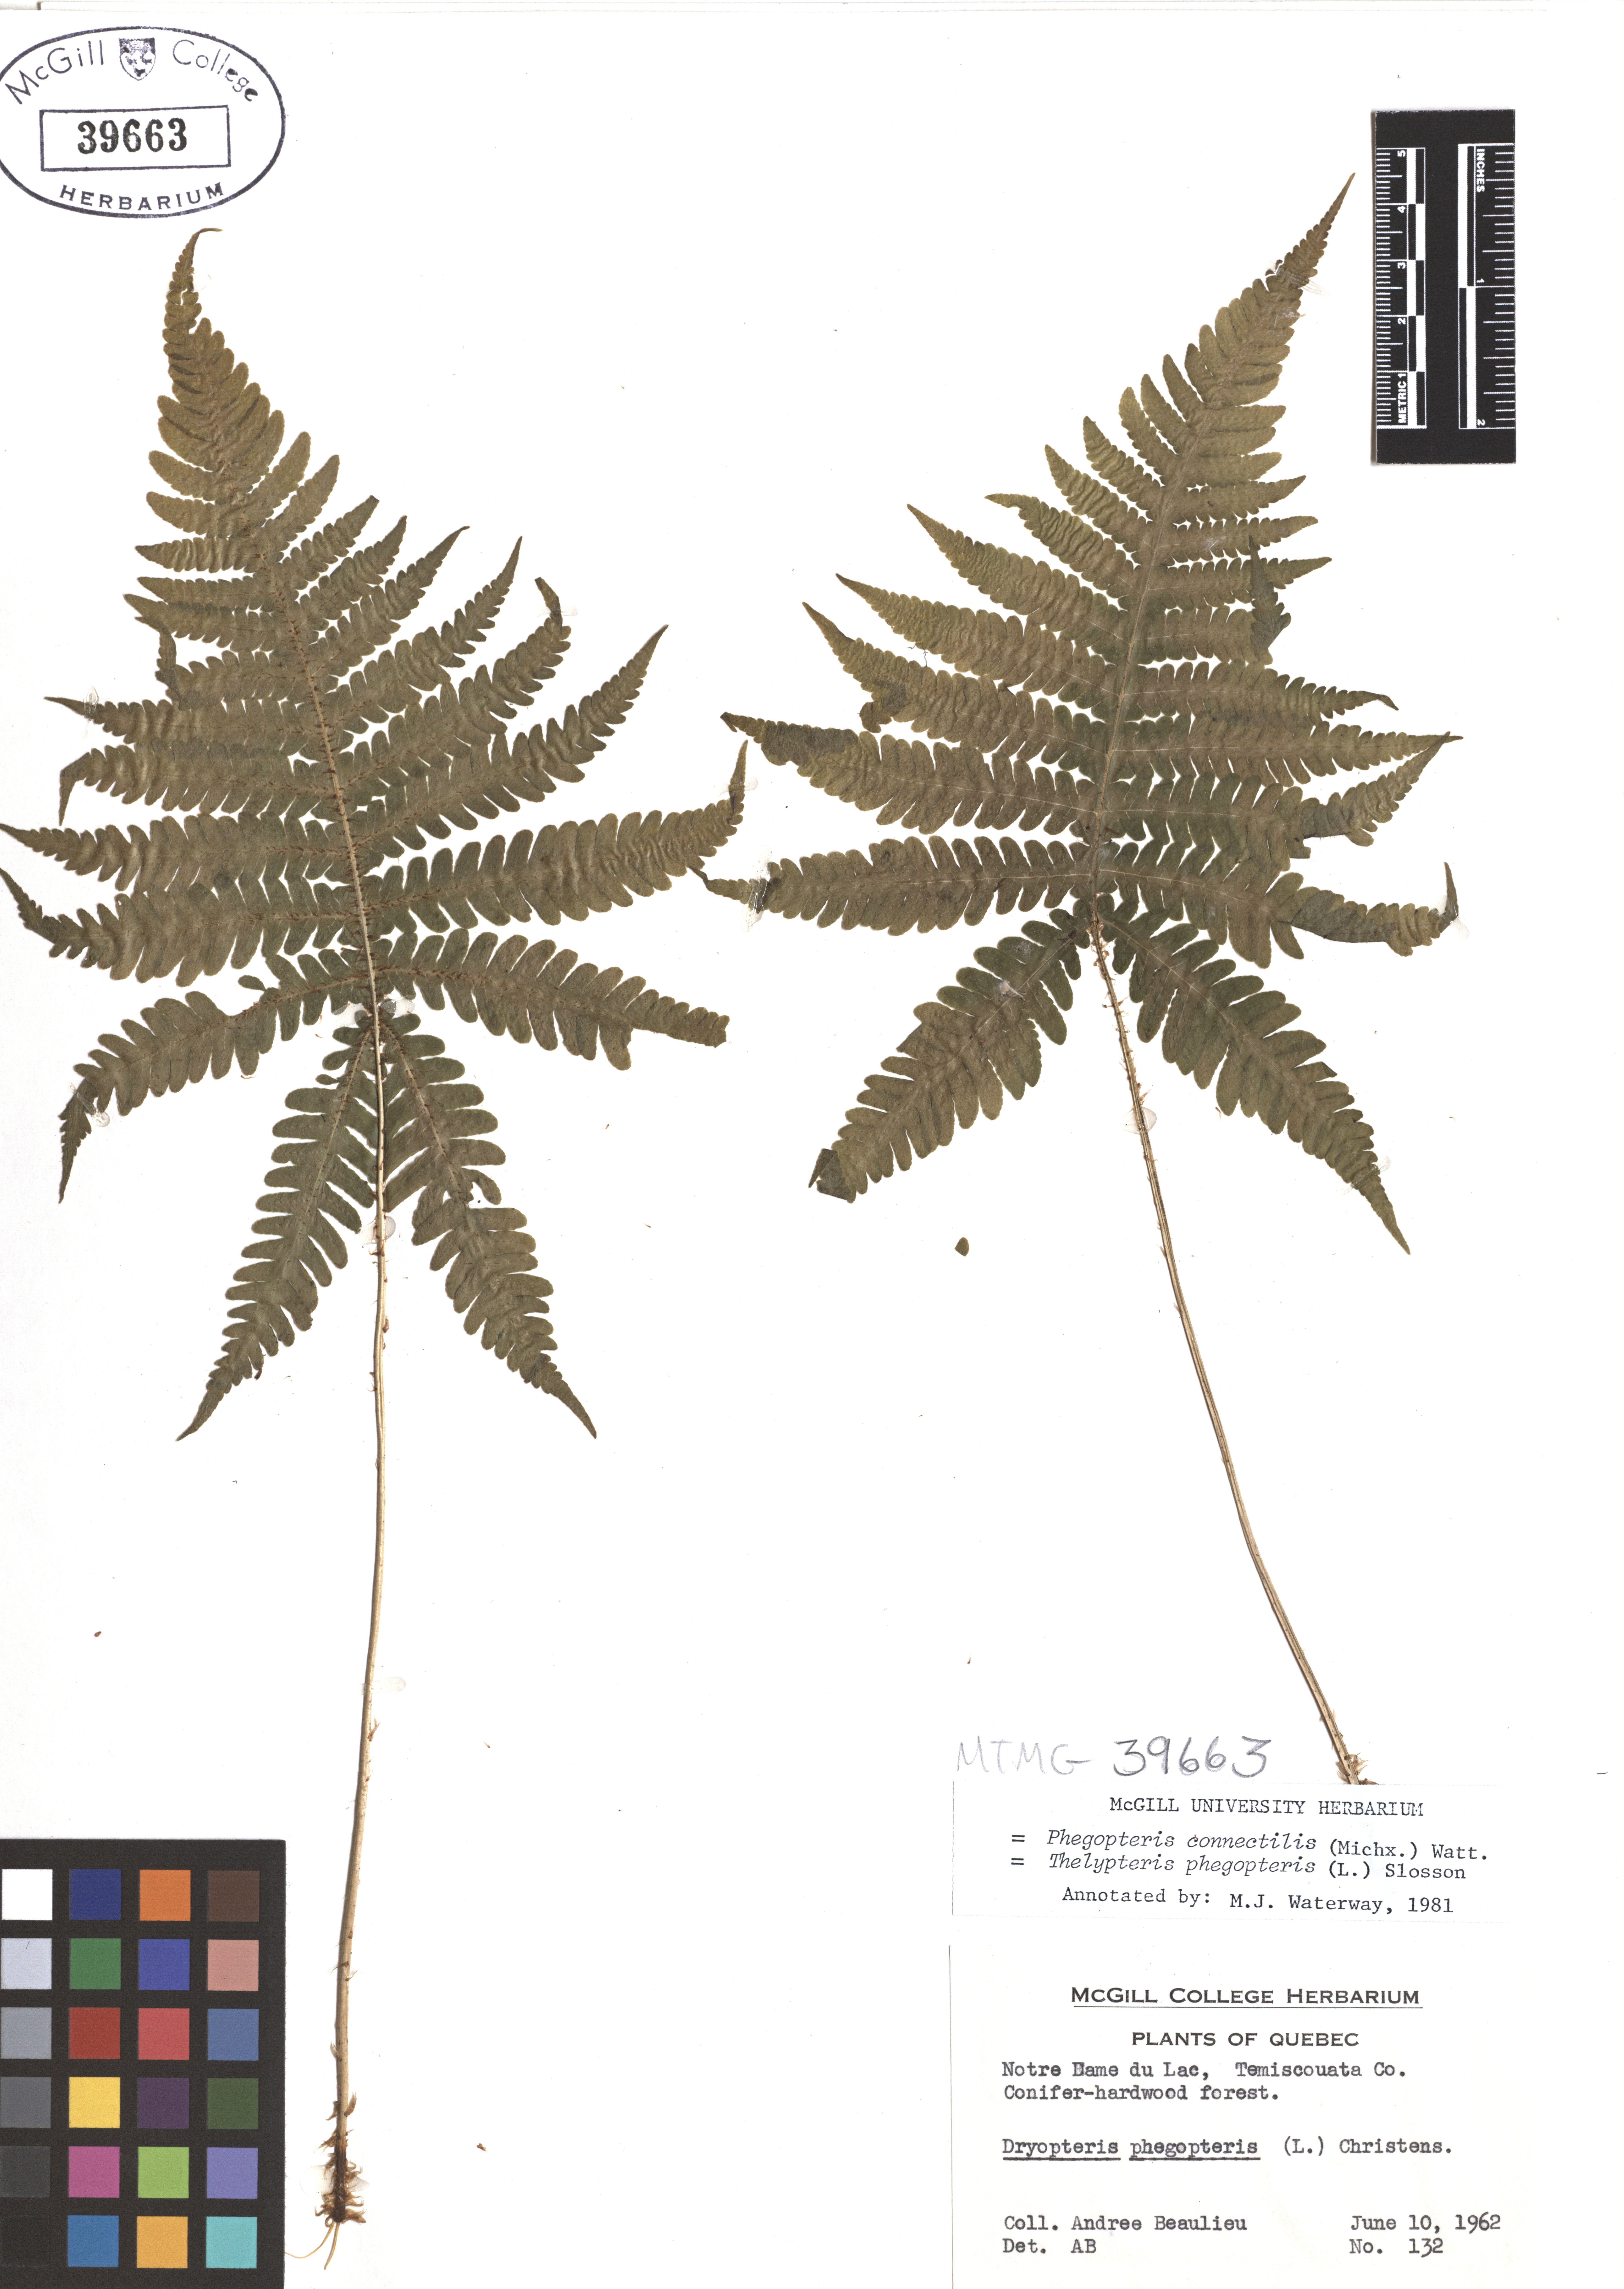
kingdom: Plantae
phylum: Tracheophyta
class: Polypodiopsida
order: Polypodiales
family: Thelypteridaceae
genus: Phegopteris
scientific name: Phegopteris connectilis
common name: Beech fern
